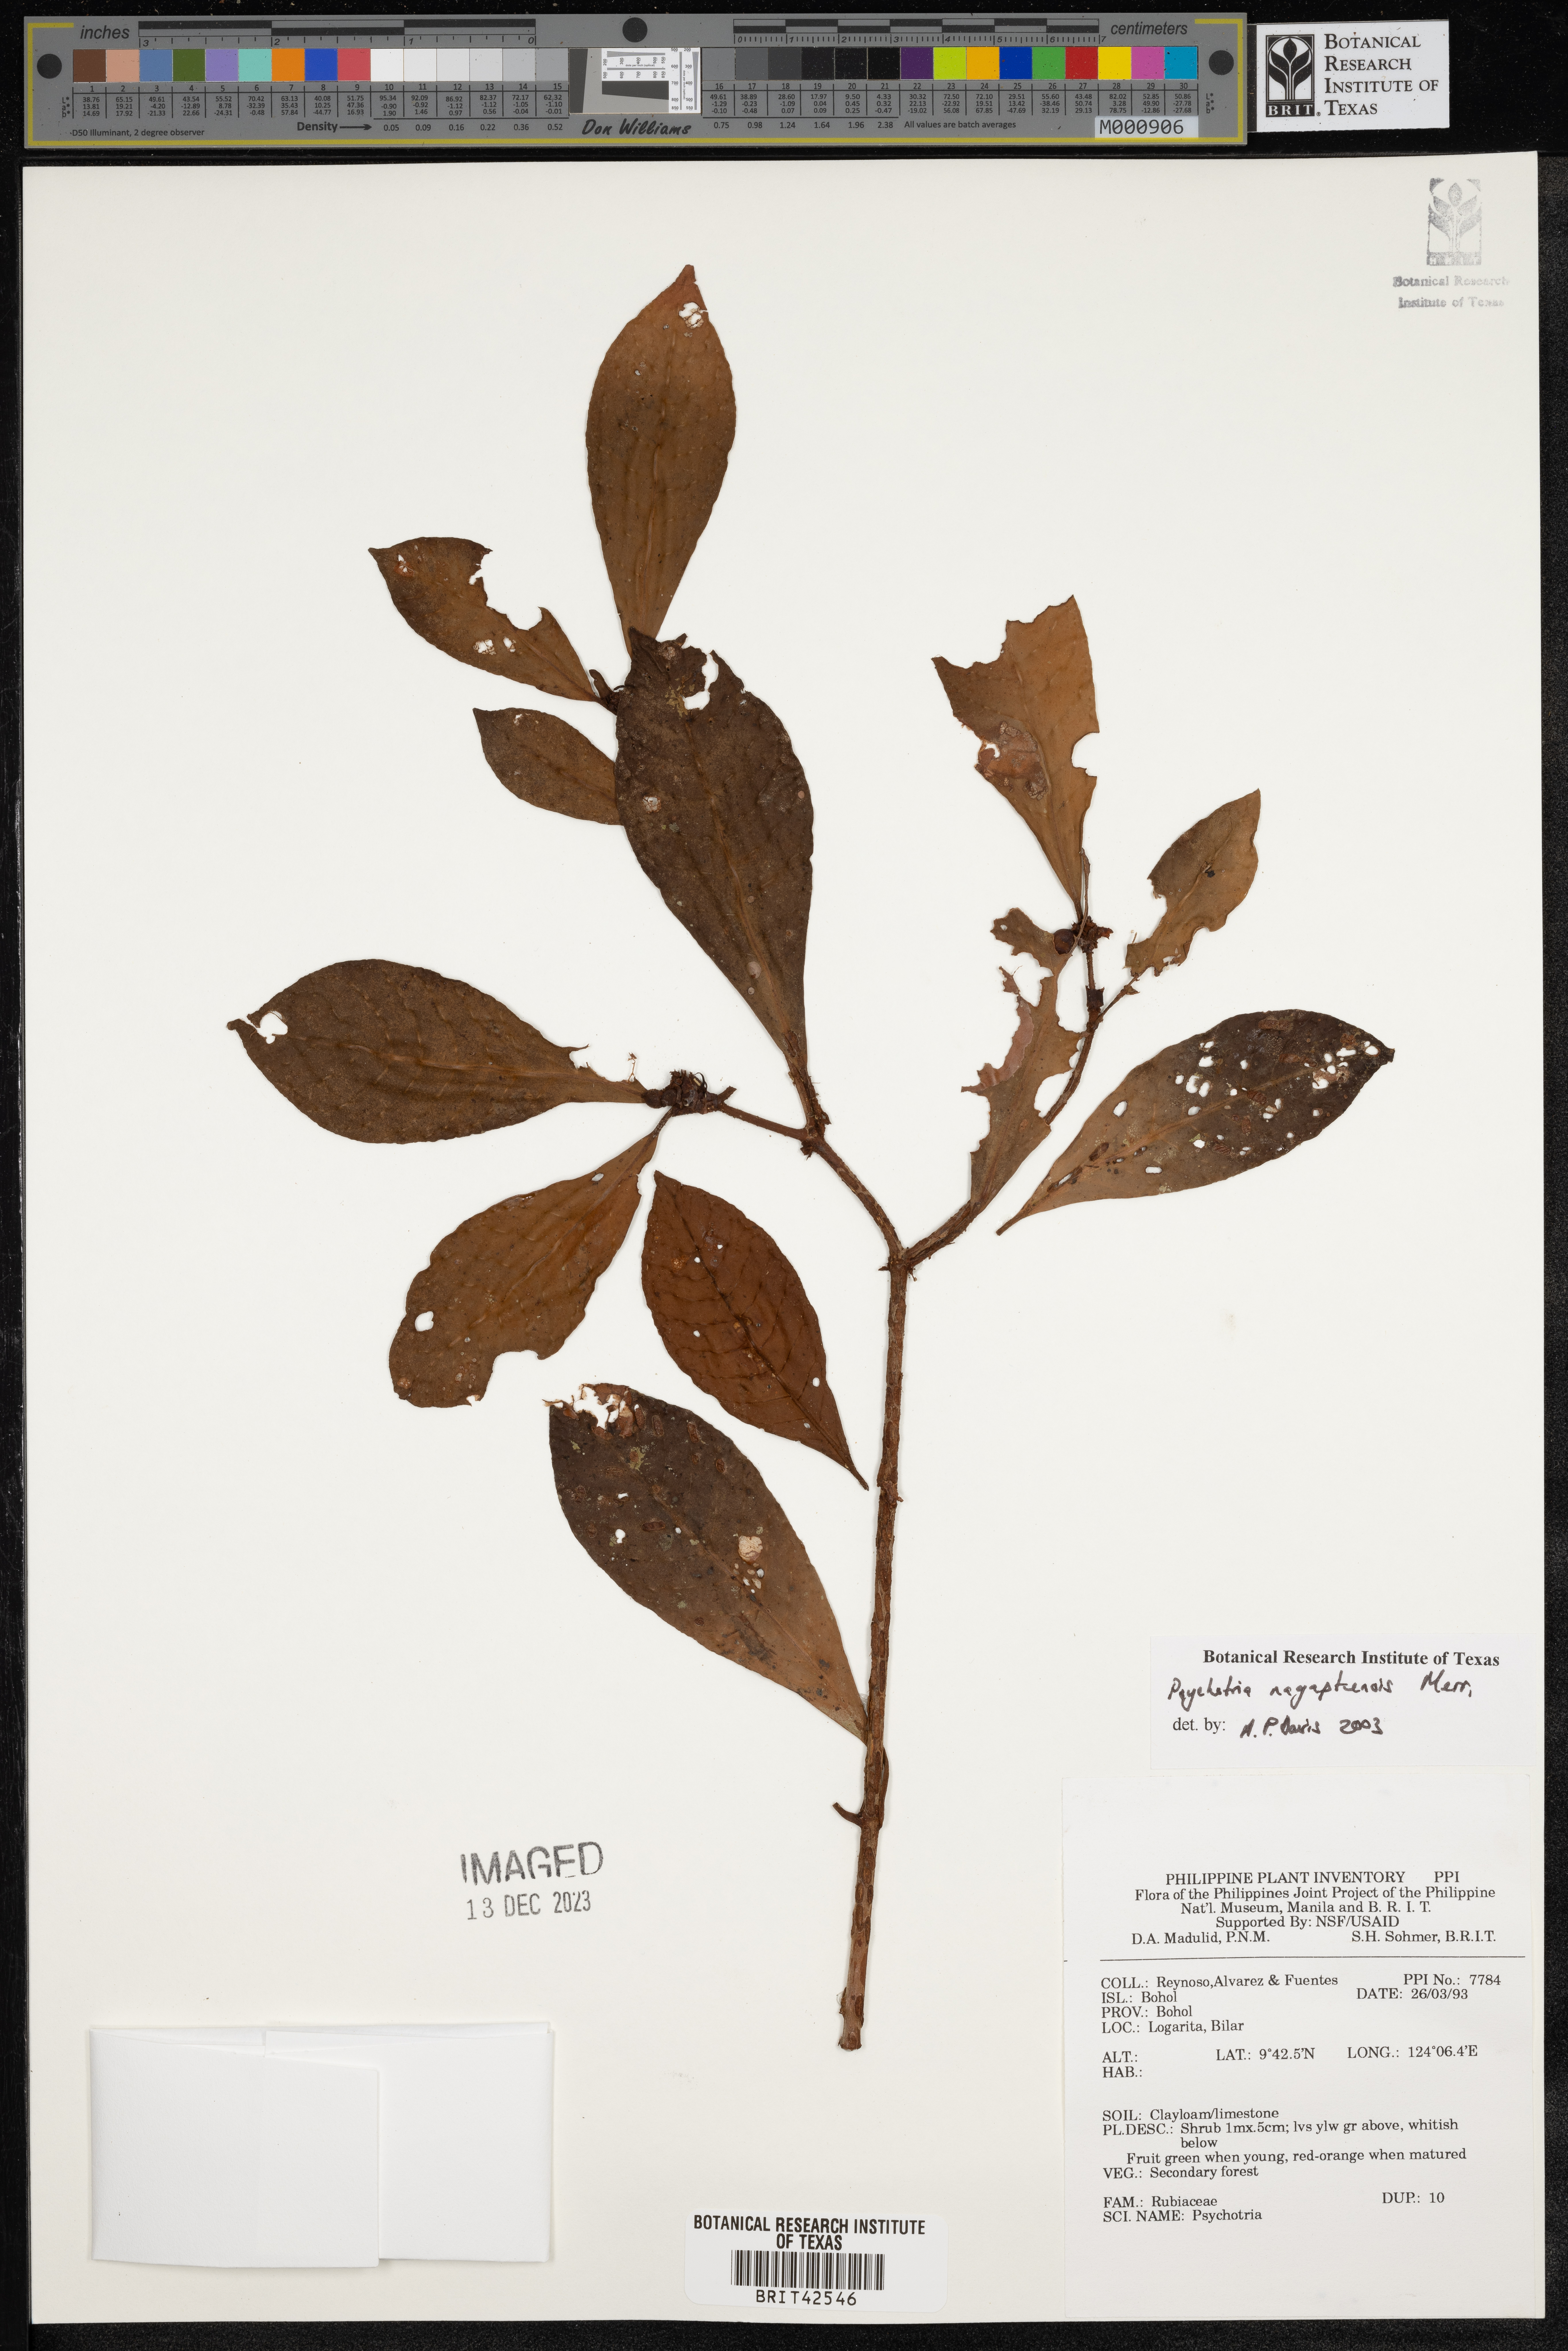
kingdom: Plantae
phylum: Tracheophyta
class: Magnoliopsida
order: Gentianales
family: Rubiaceae
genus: Psychotria
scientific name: Psychotria nagapatensis
